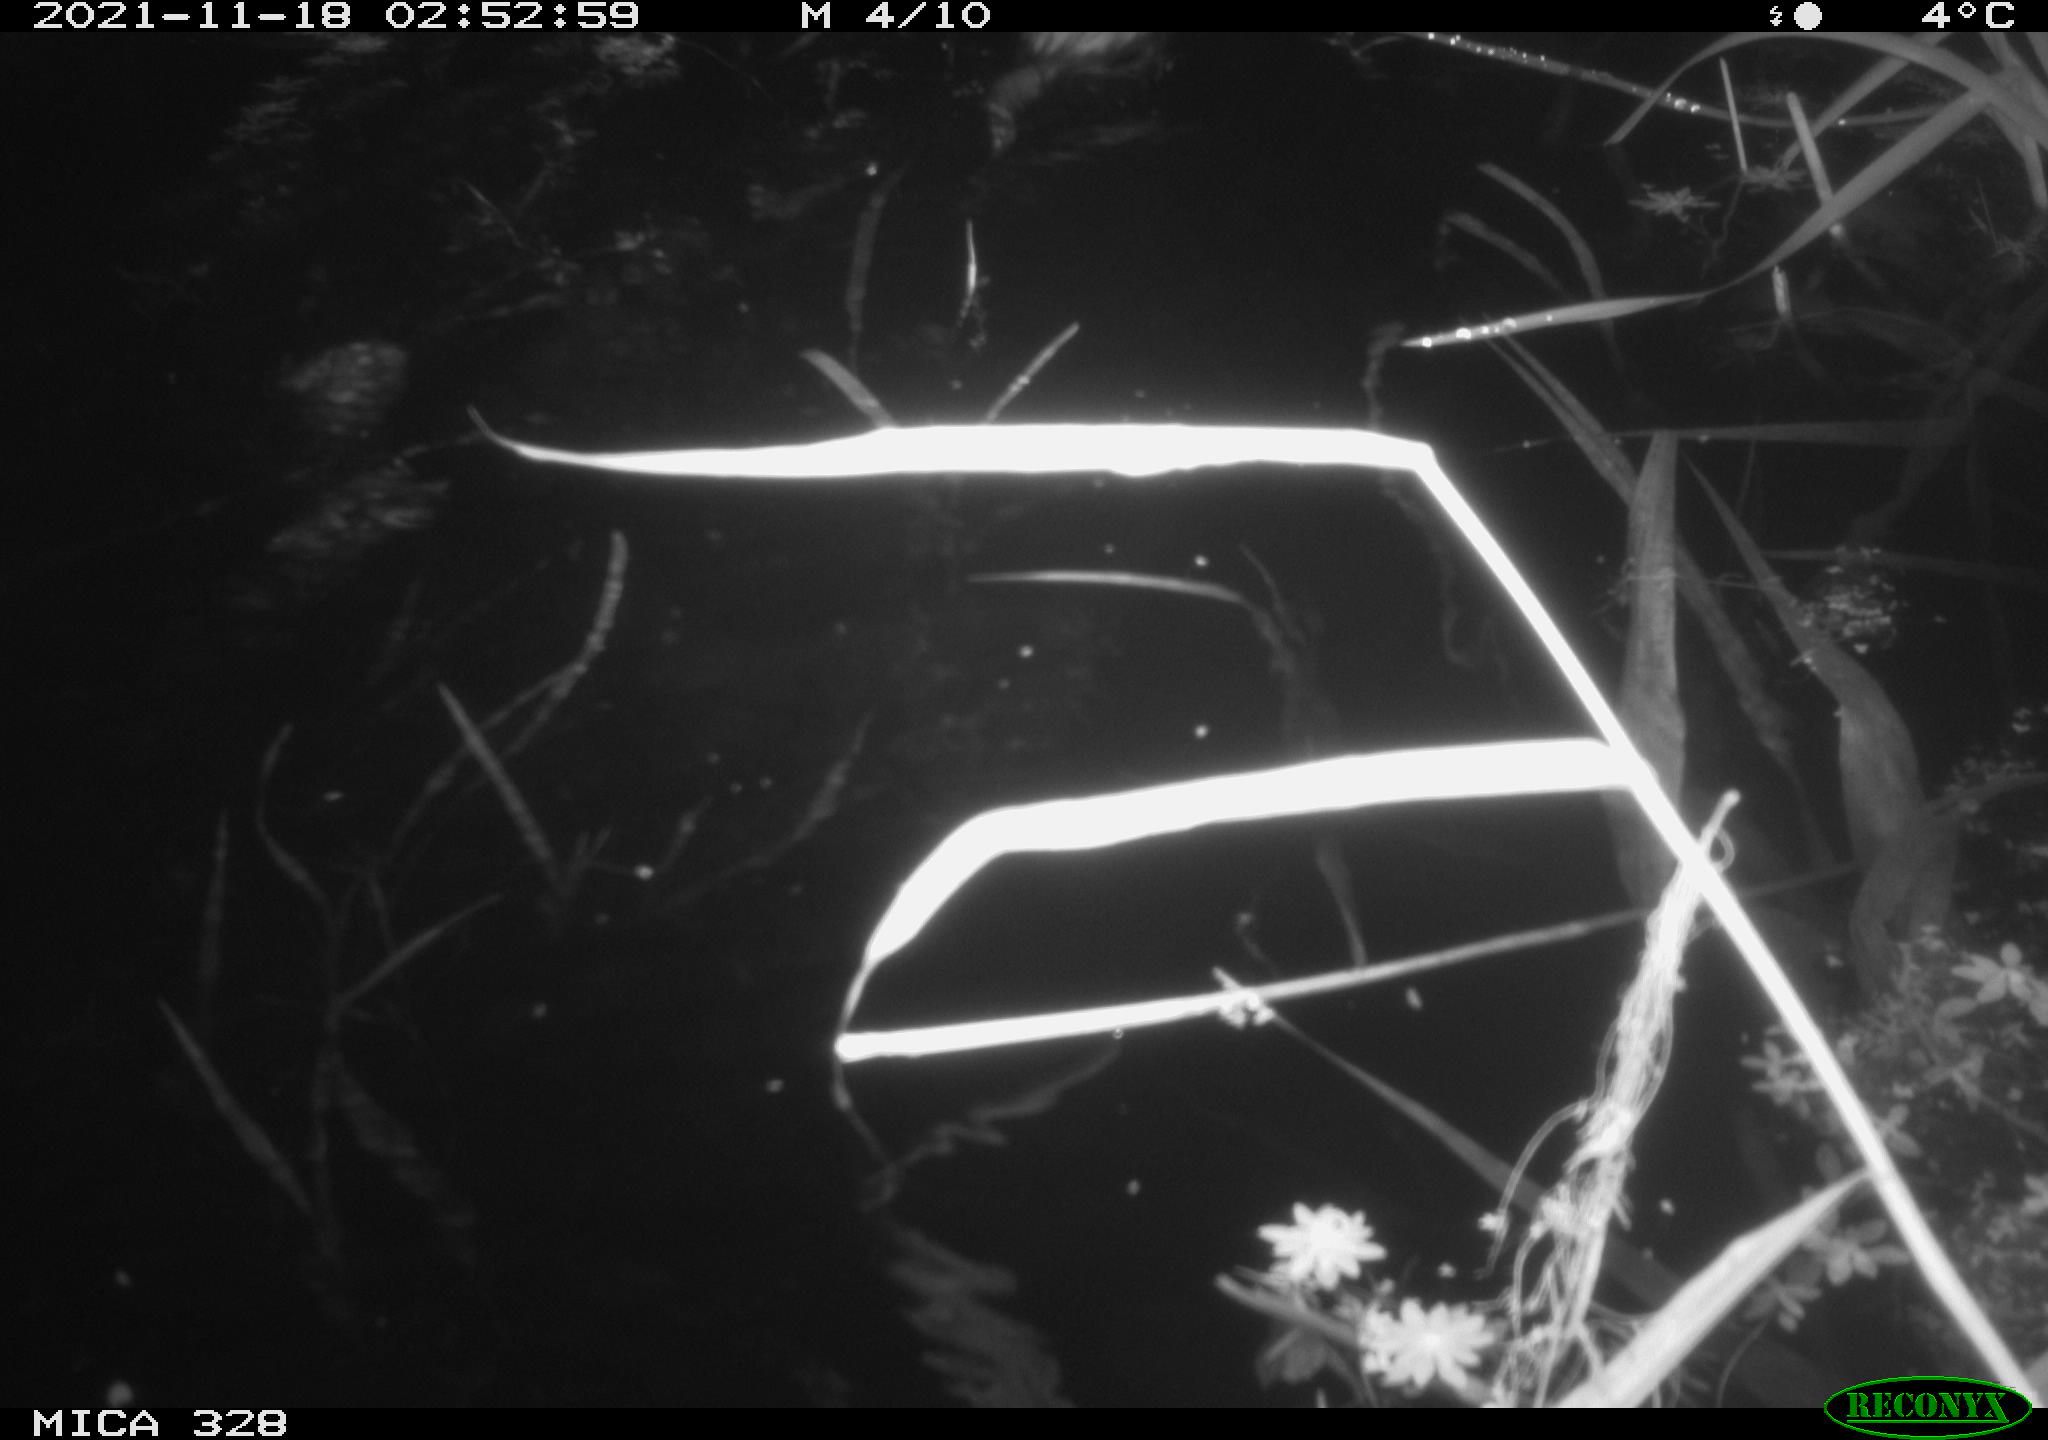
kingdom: Animalia
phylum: Chordata
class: Mammalia
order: Rodentia
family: Cricetidae
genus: Ondatra
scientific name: Ondatra zibethicus
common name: Muskrat
